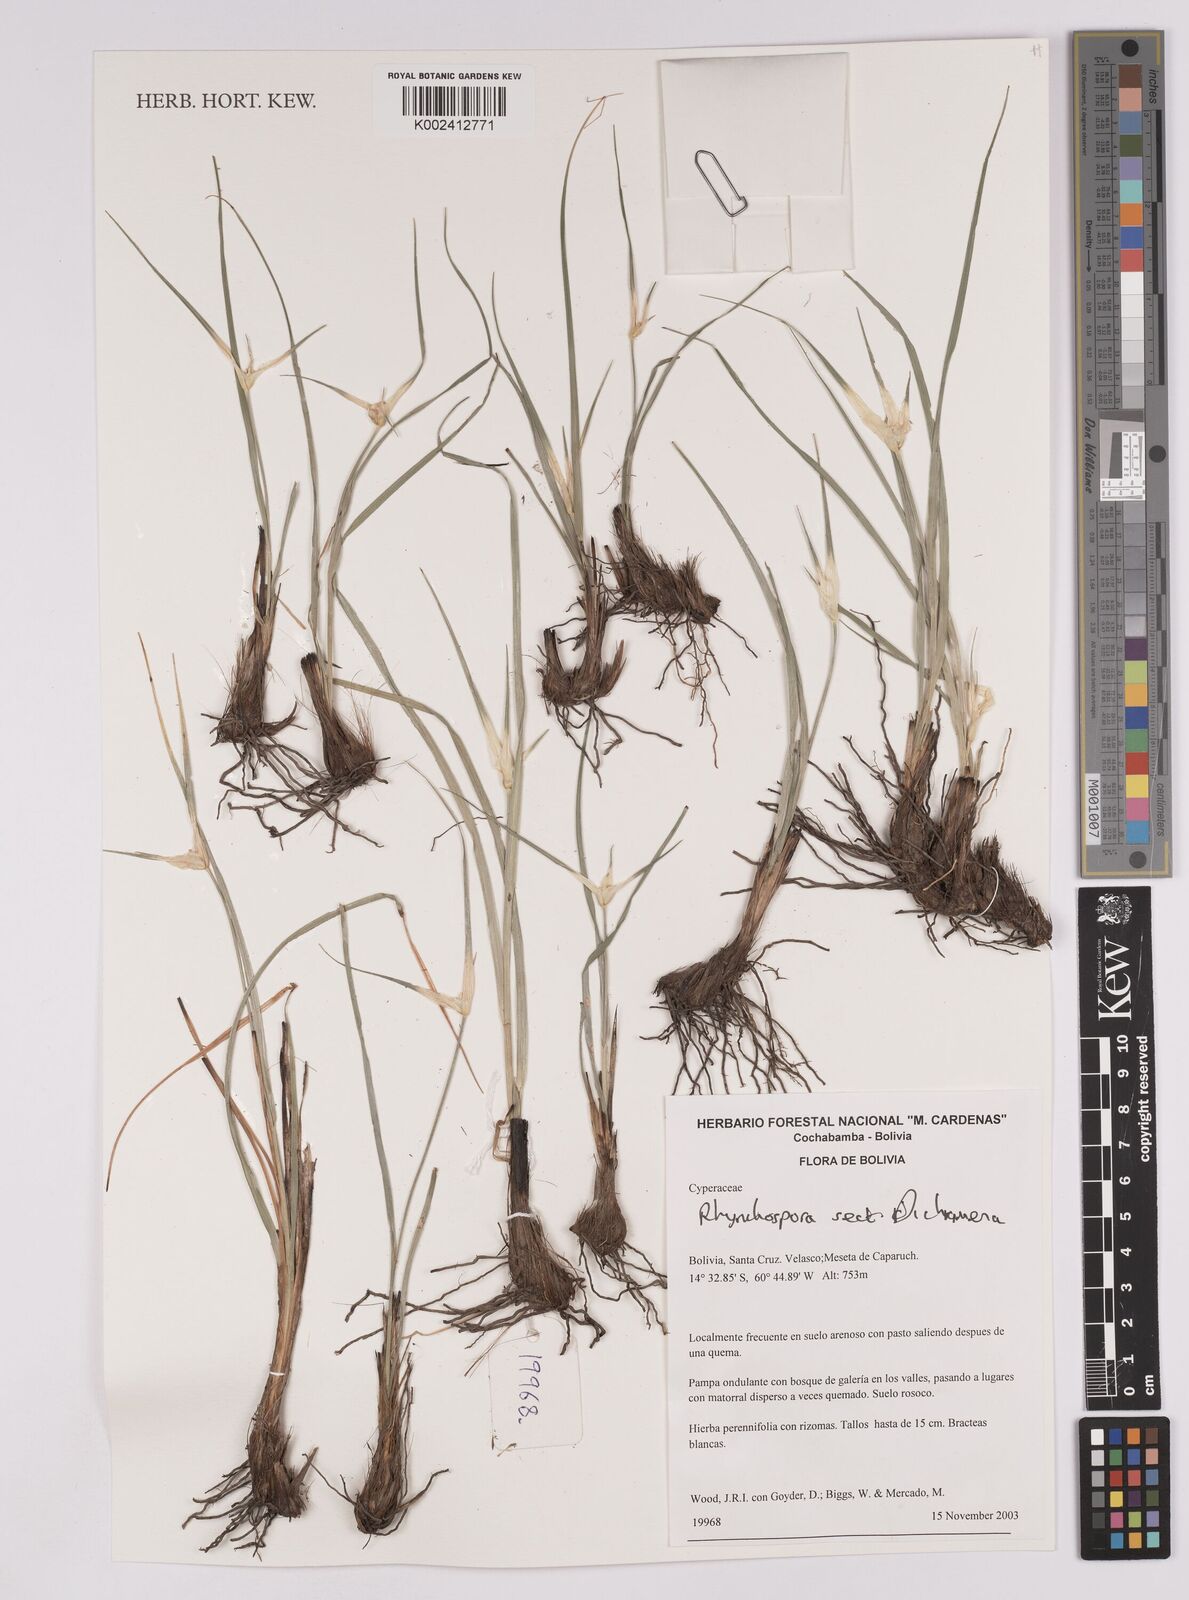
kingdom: Plantae
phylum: Tracheophyta
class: Liliopsida
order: Poales
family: Cyperaceae
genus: Rhynchospora
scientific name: Rhynchospora
